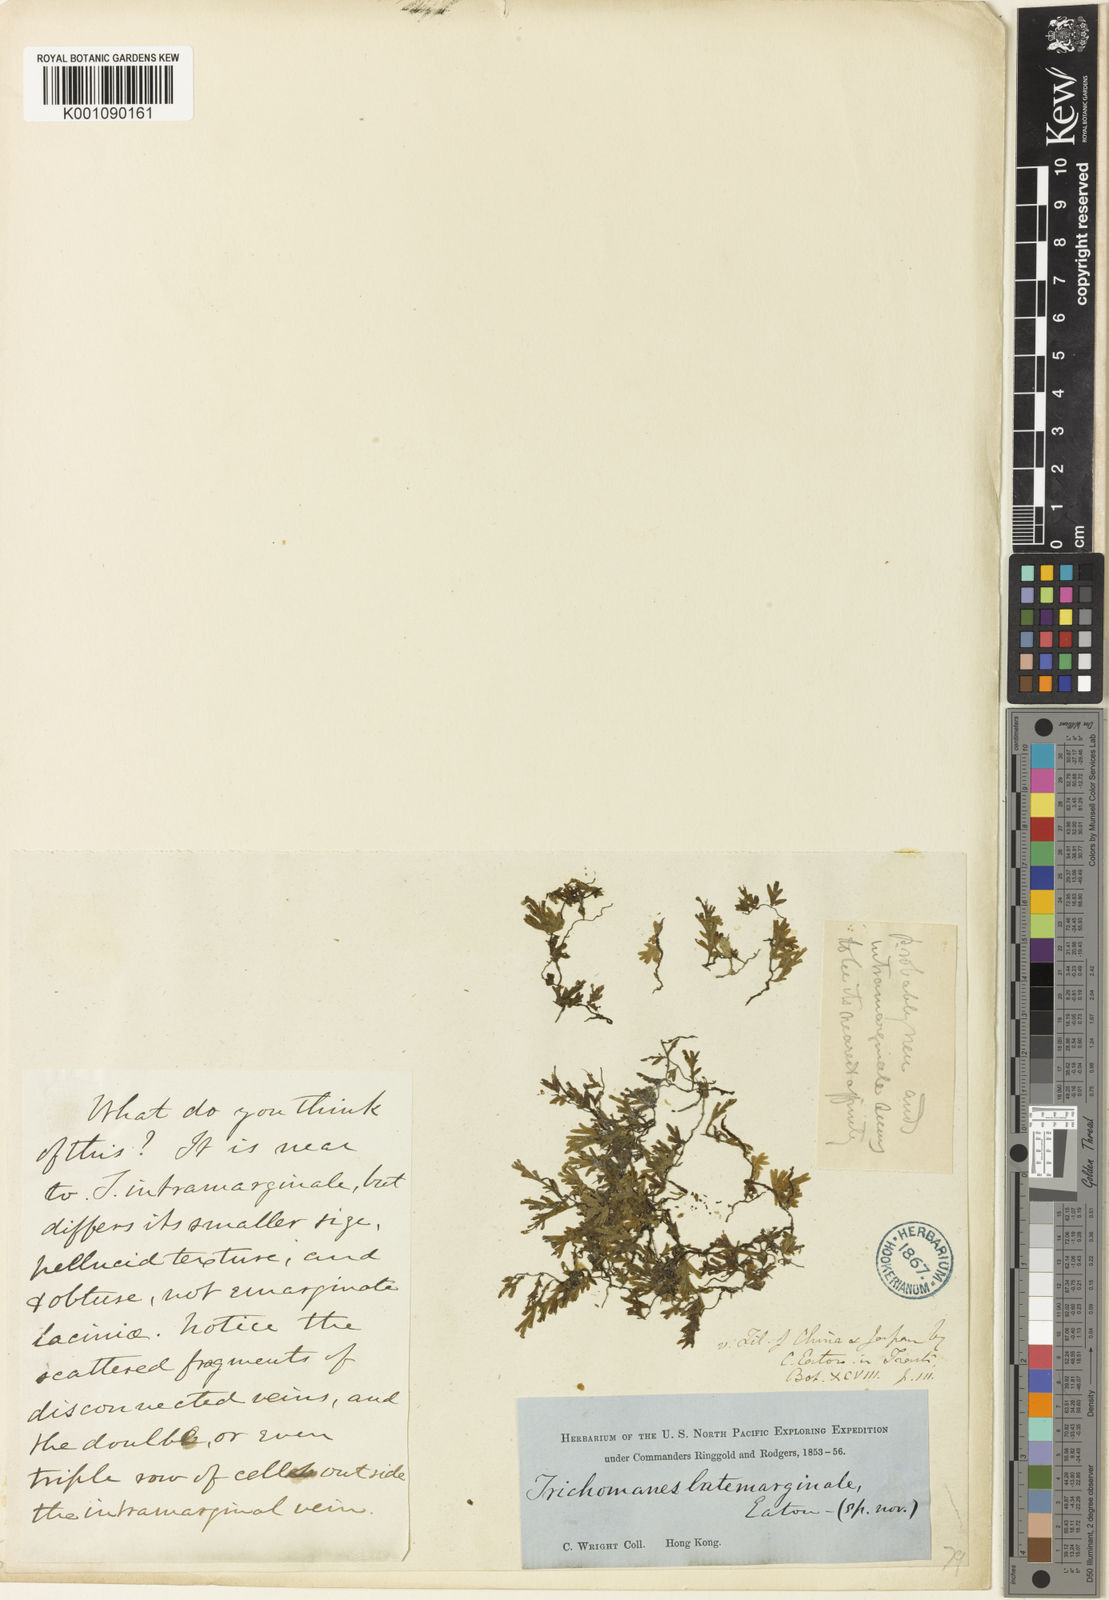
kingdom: Plantae
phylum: Tracheophyta
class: Polypodiopsida
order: Hymenophyllales
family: Hymenophyllaceae
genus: Crepidomanes
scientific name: Crepidomanes latemarginale
